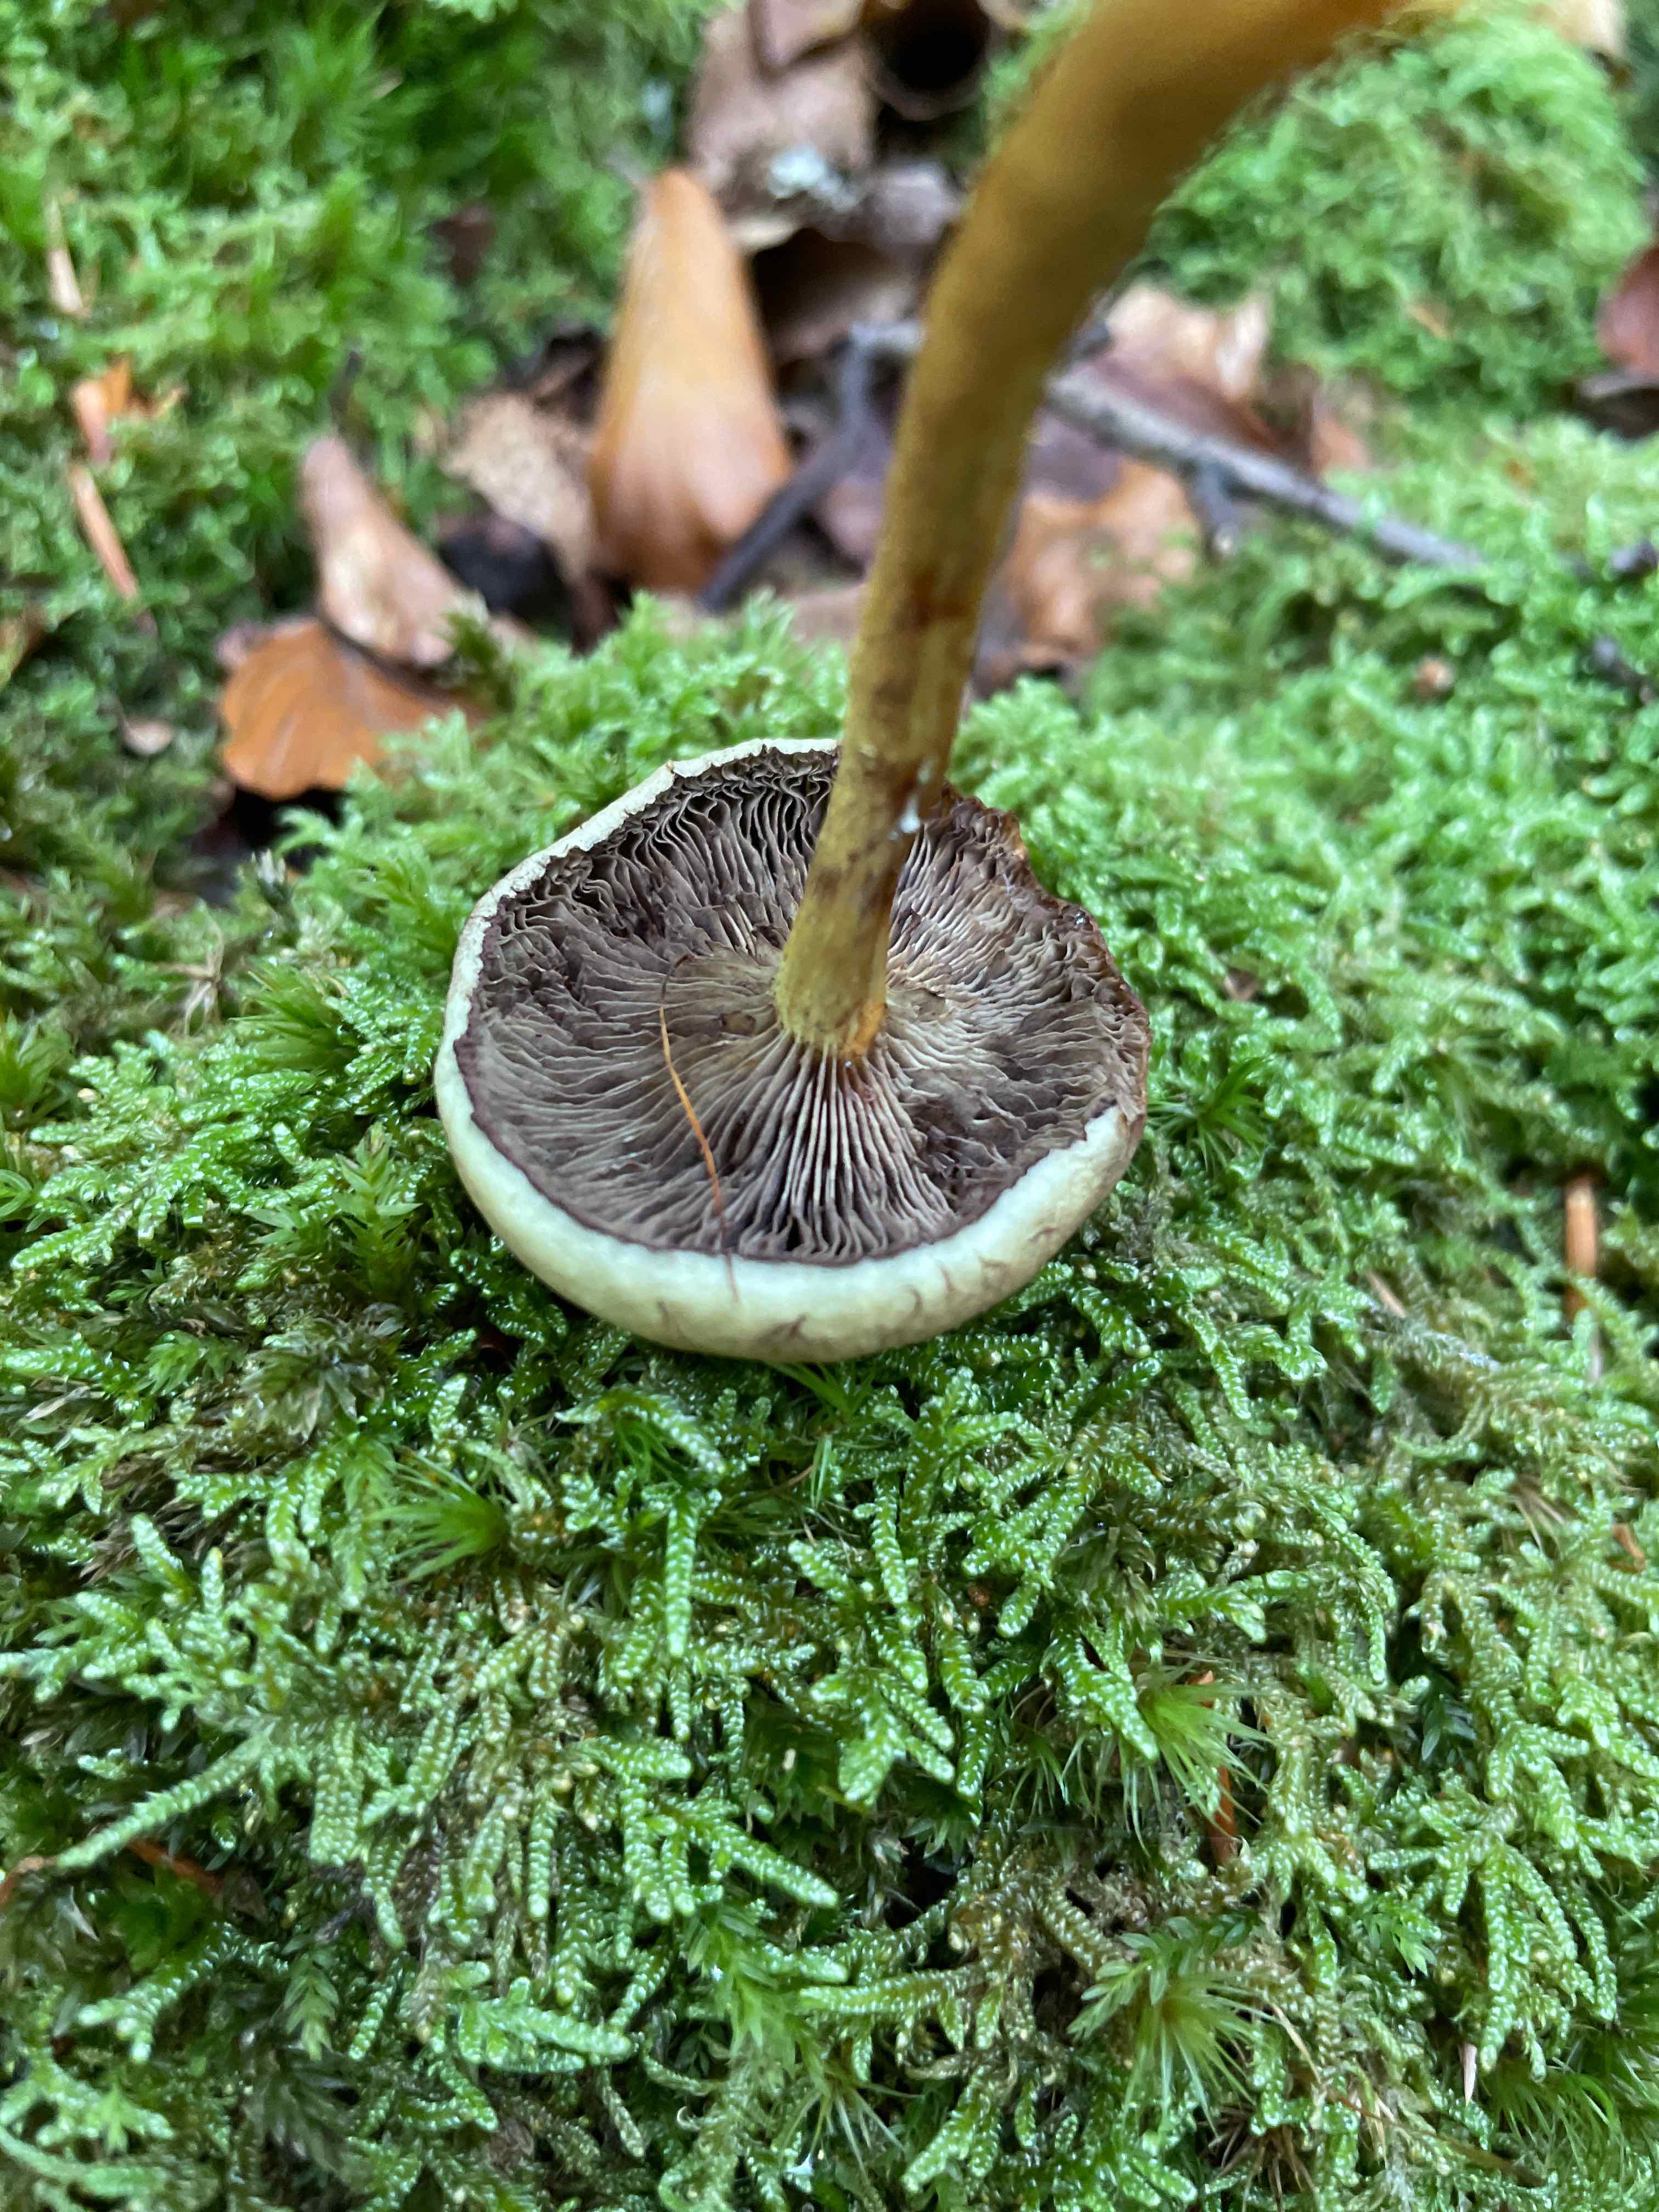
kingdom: Fungi
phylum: Basidiomycota
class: Agaricomycetes
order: Agaricales
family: Strophariaceae
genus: Hypholoma
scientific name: Hypholoma fasciculare
